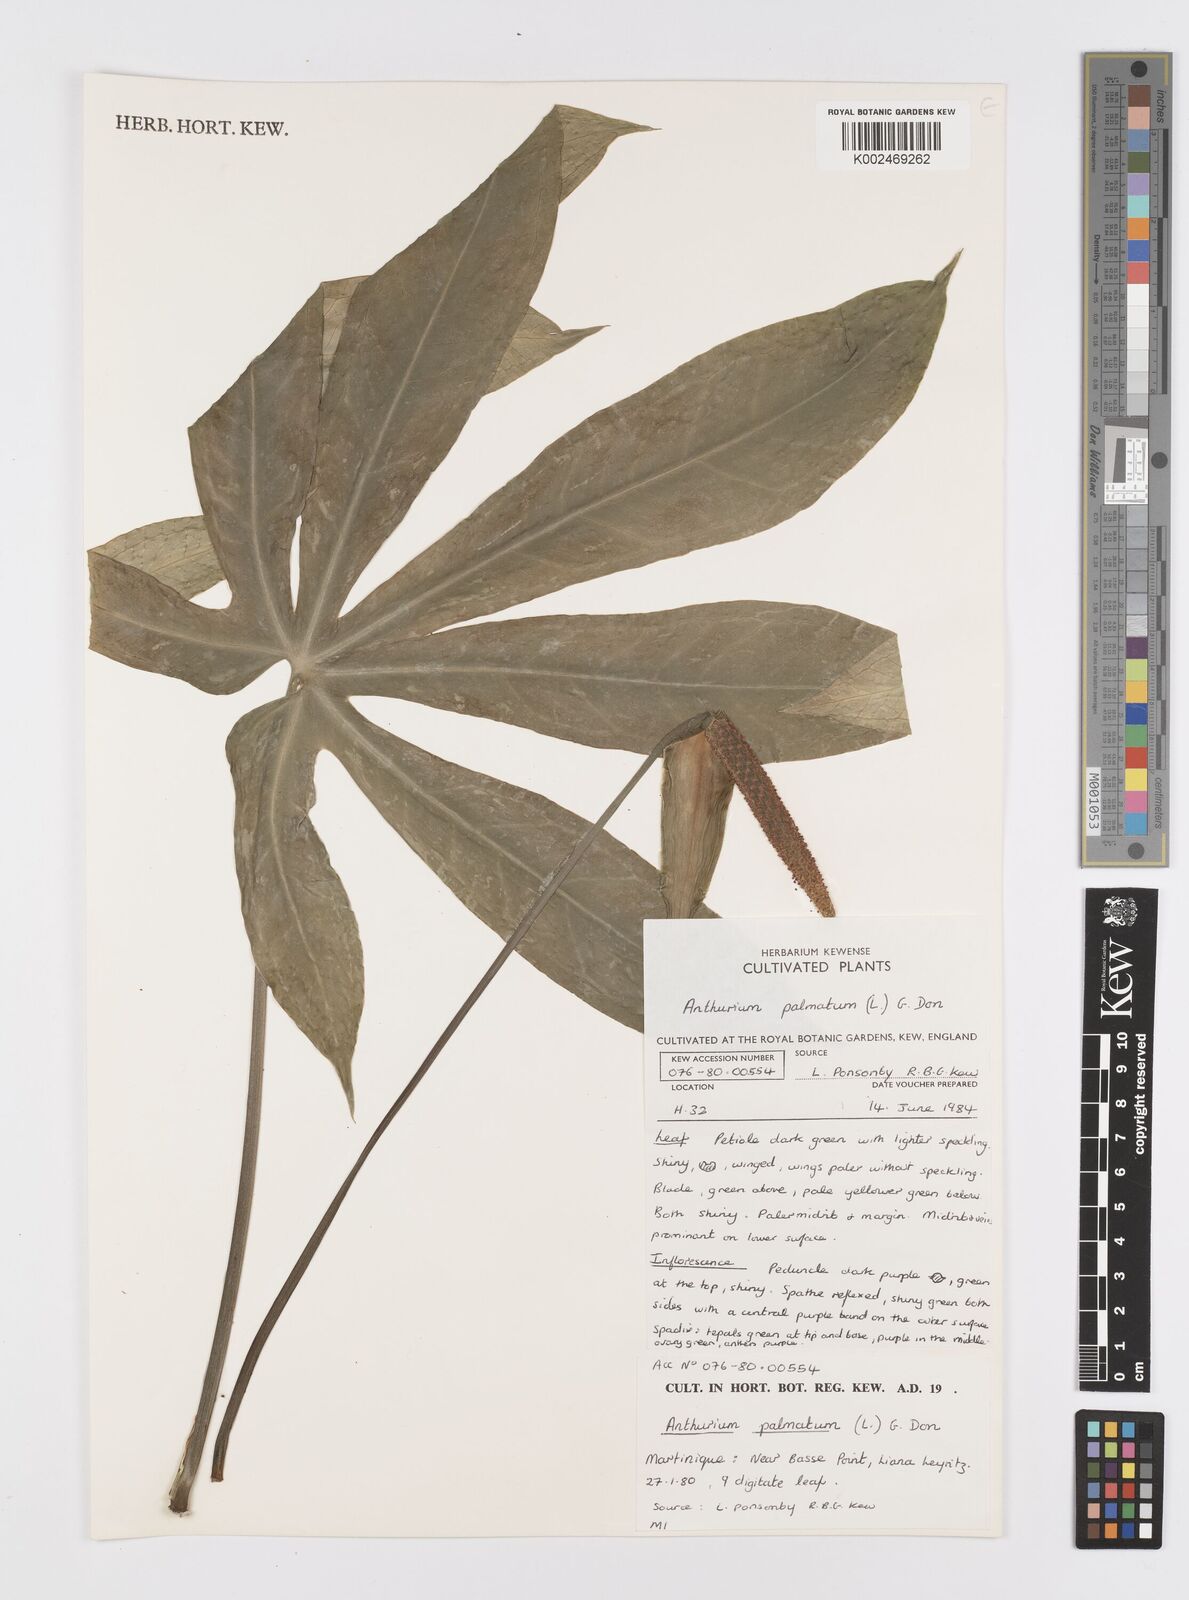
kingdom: Plantae
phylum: Tracheophyta
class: Liliopsida
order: Alismatales
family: Araceae
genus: Anthurium
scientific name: Anthurium palmatum
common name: Mibi
